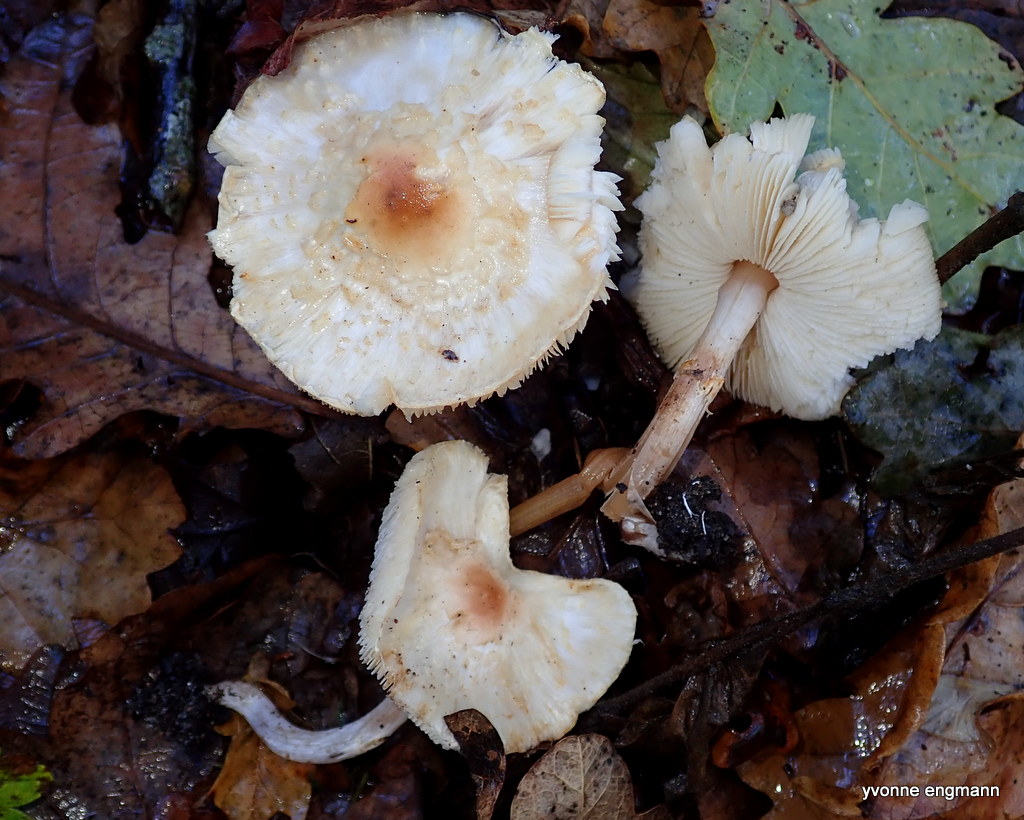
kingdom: Fungi
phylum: Basidiomycota
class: Agaricomycetes
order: Agaricales
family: Agaricaceae
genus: Lepiota
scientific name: Lepiota cristata
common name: stinkende parasolhat
